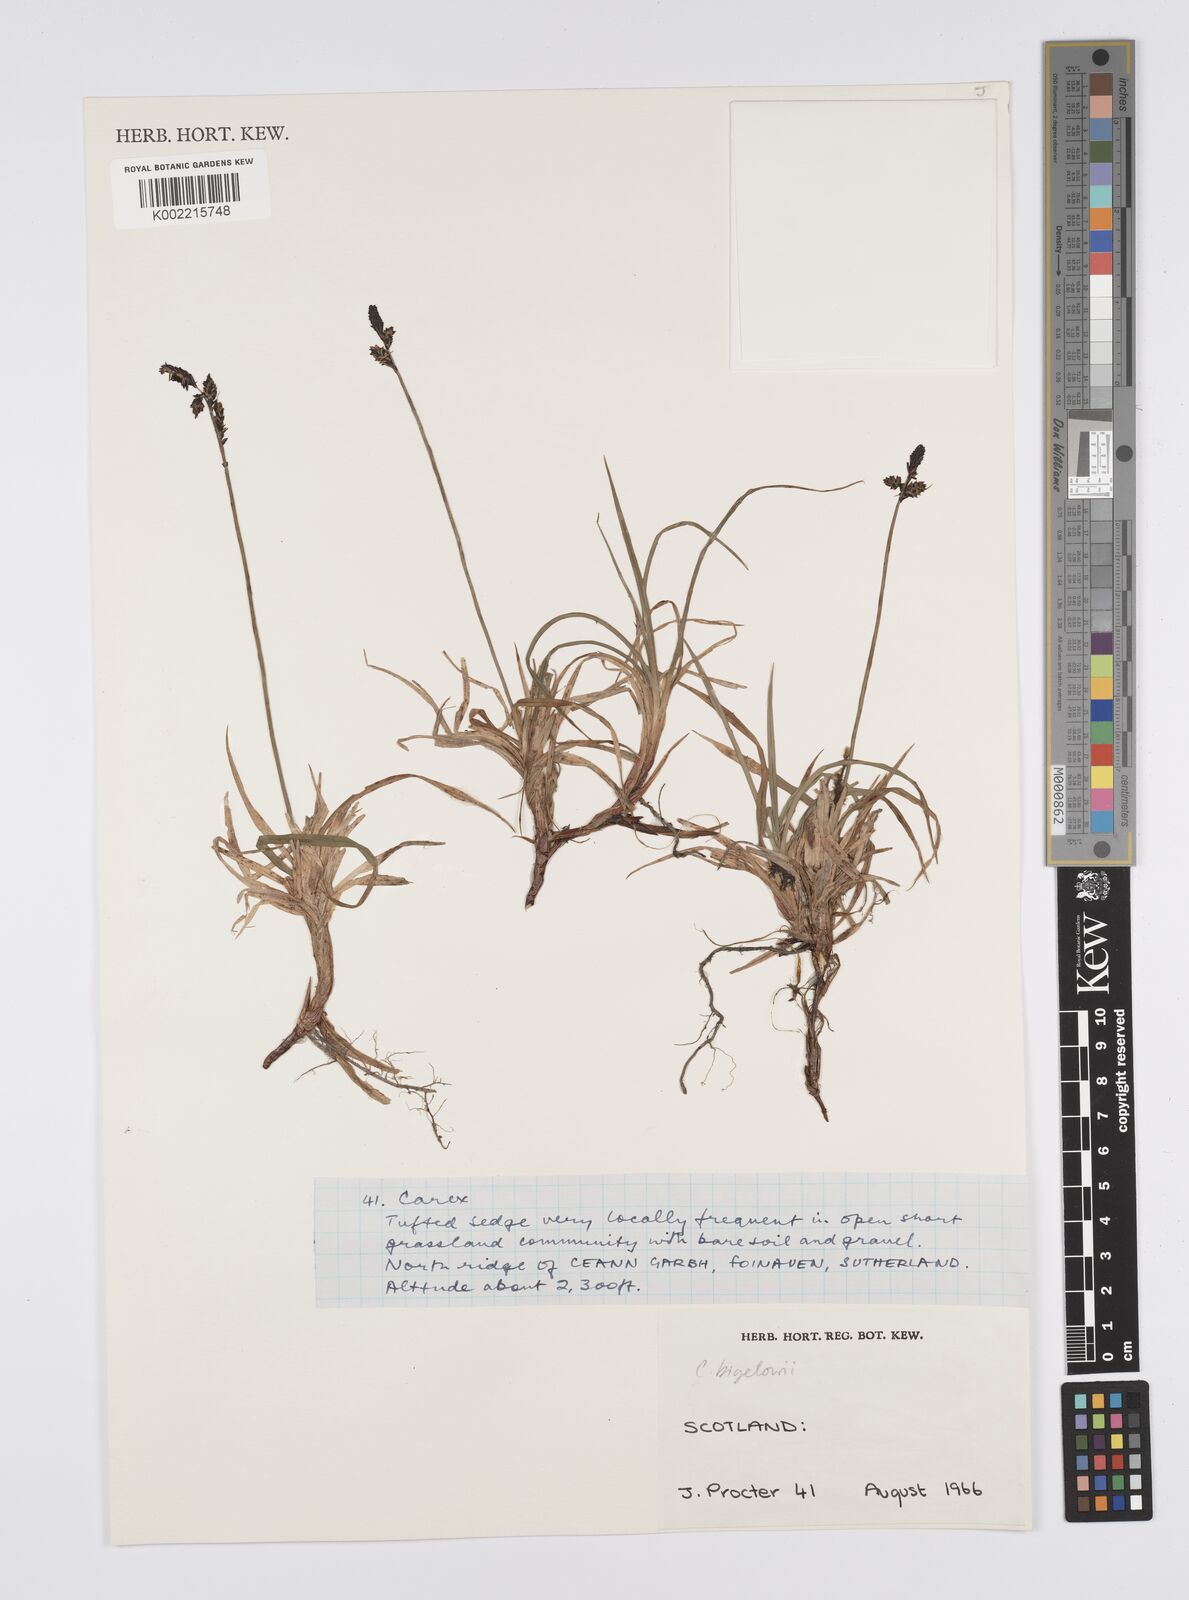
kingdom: Plantae
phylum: Tracheophyta
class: Liliopsida
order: Poales
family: Cyperaceae
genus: Carex
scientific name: Carex
